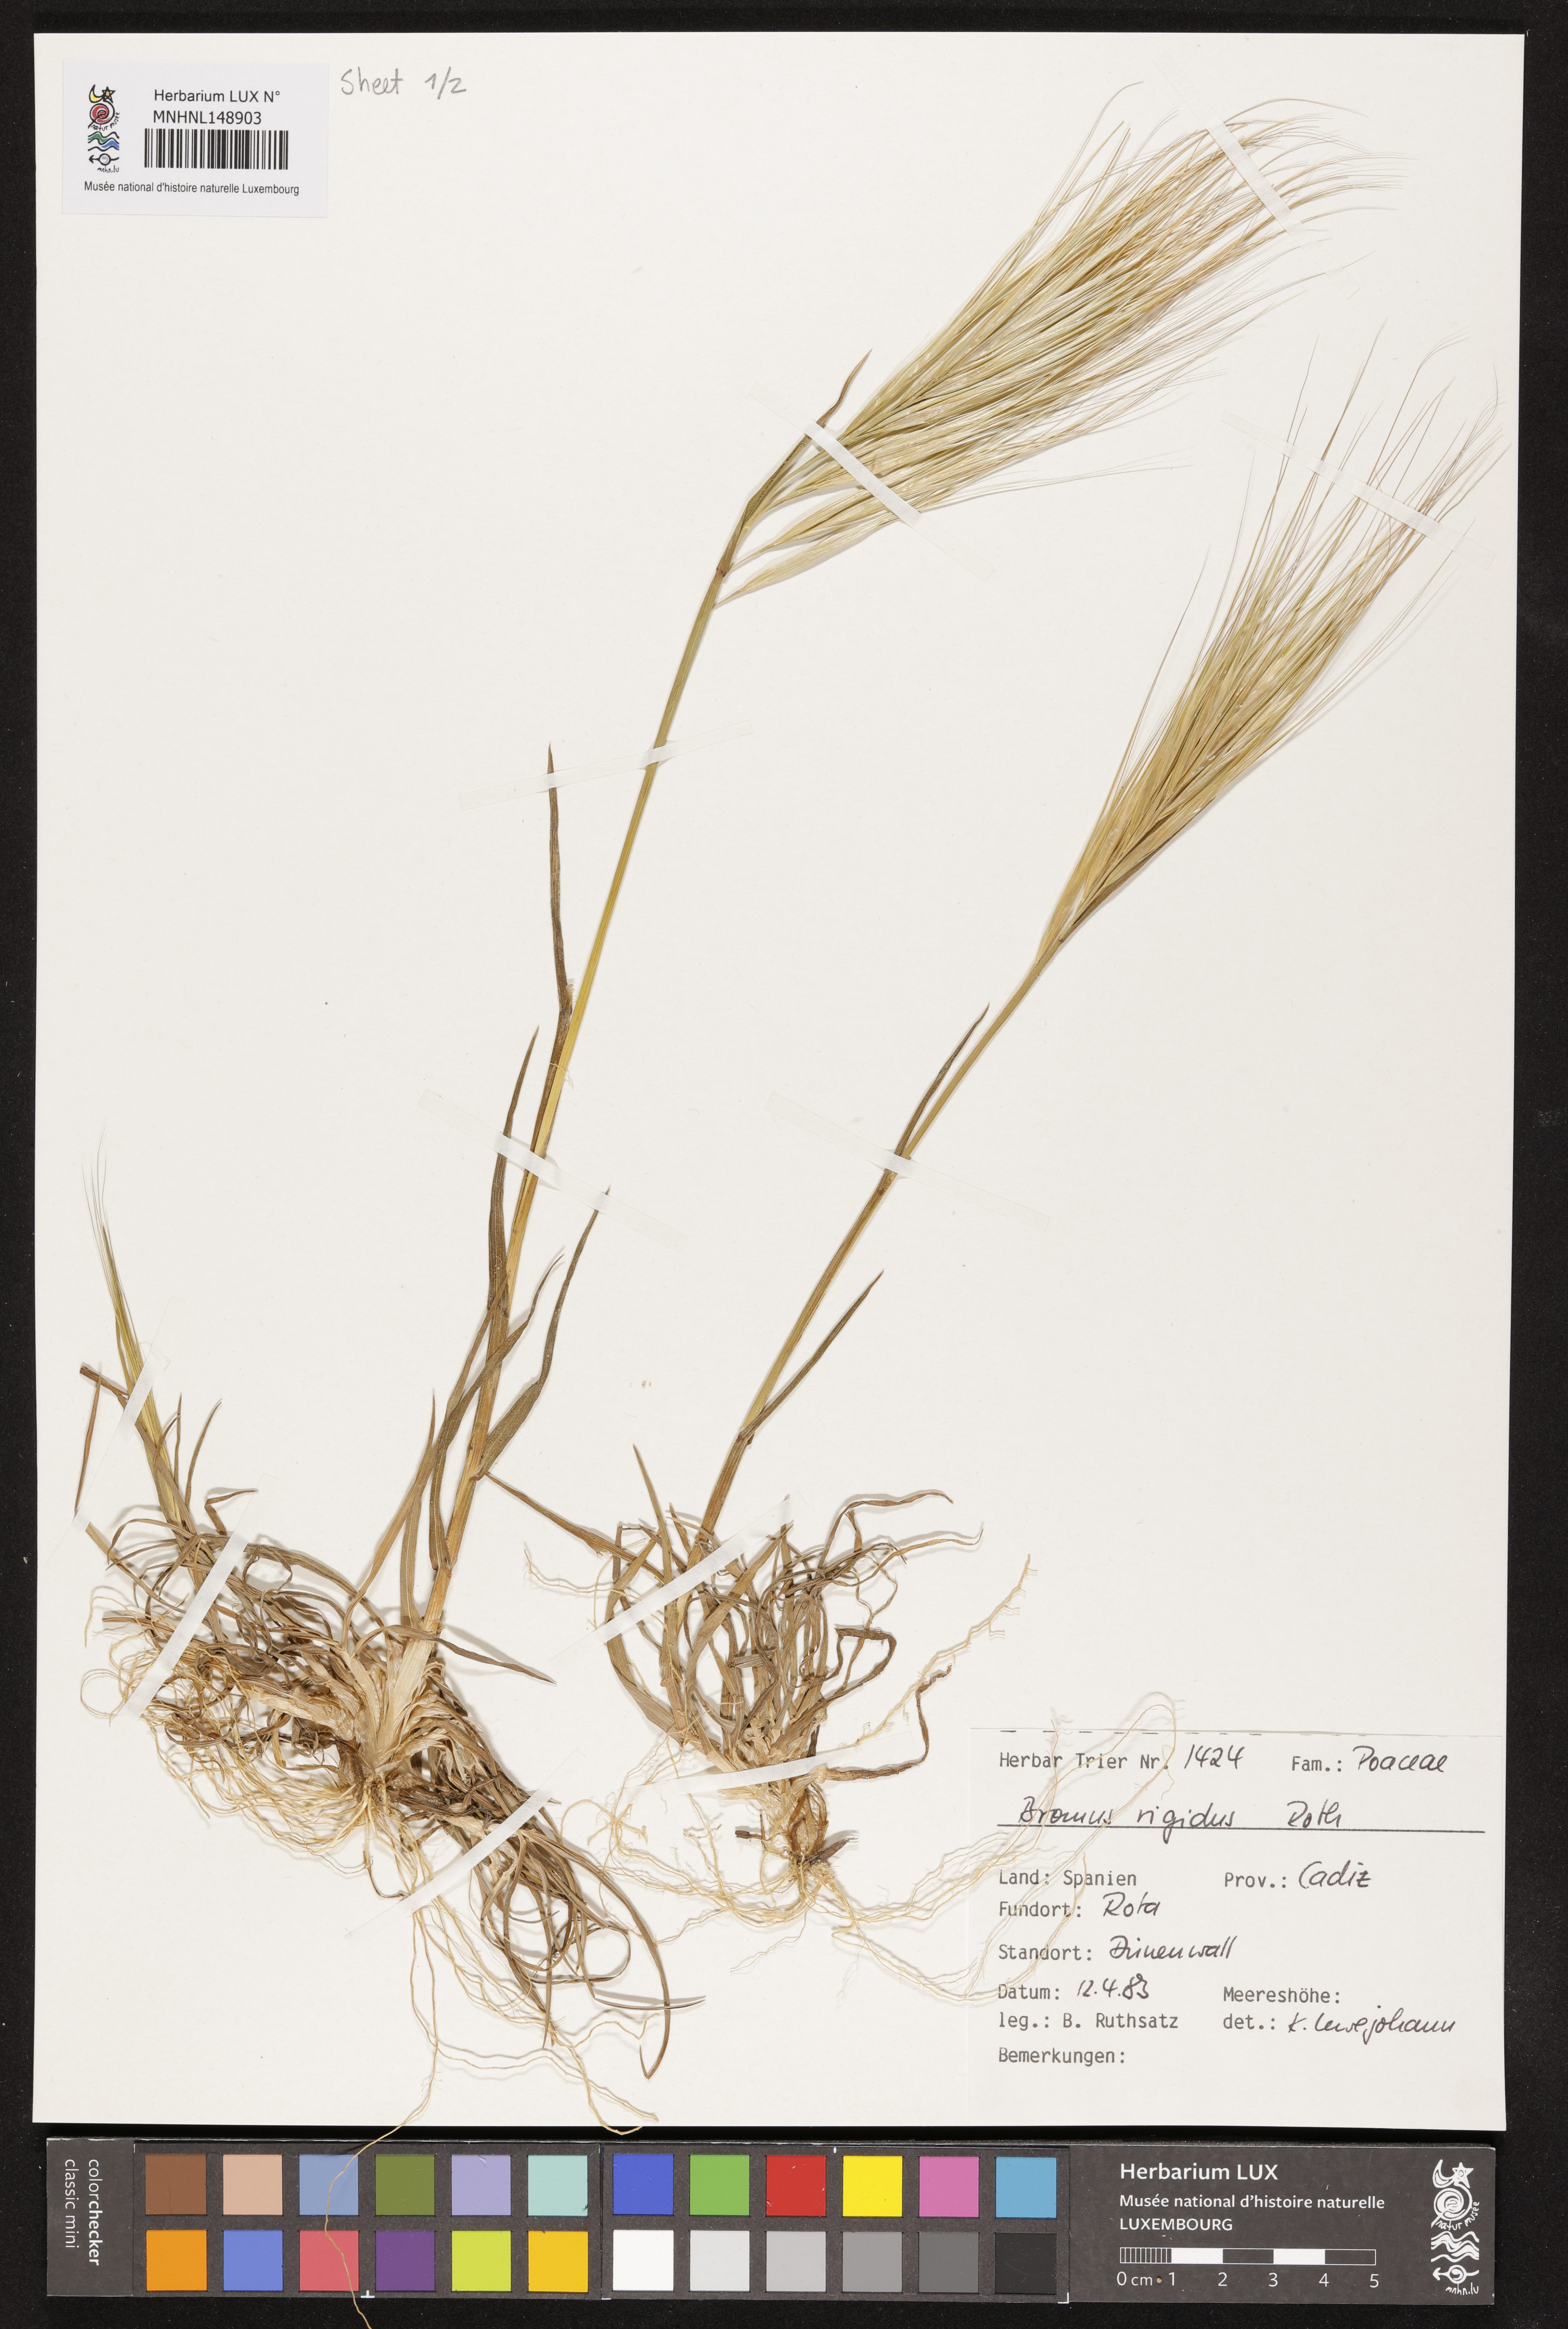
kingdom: Plantae
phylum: Tracheophyta
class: Liliopsida
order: Poales
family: Poaceae
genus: Bromus
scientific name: Bromus rigidus
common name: Ripgut brome
